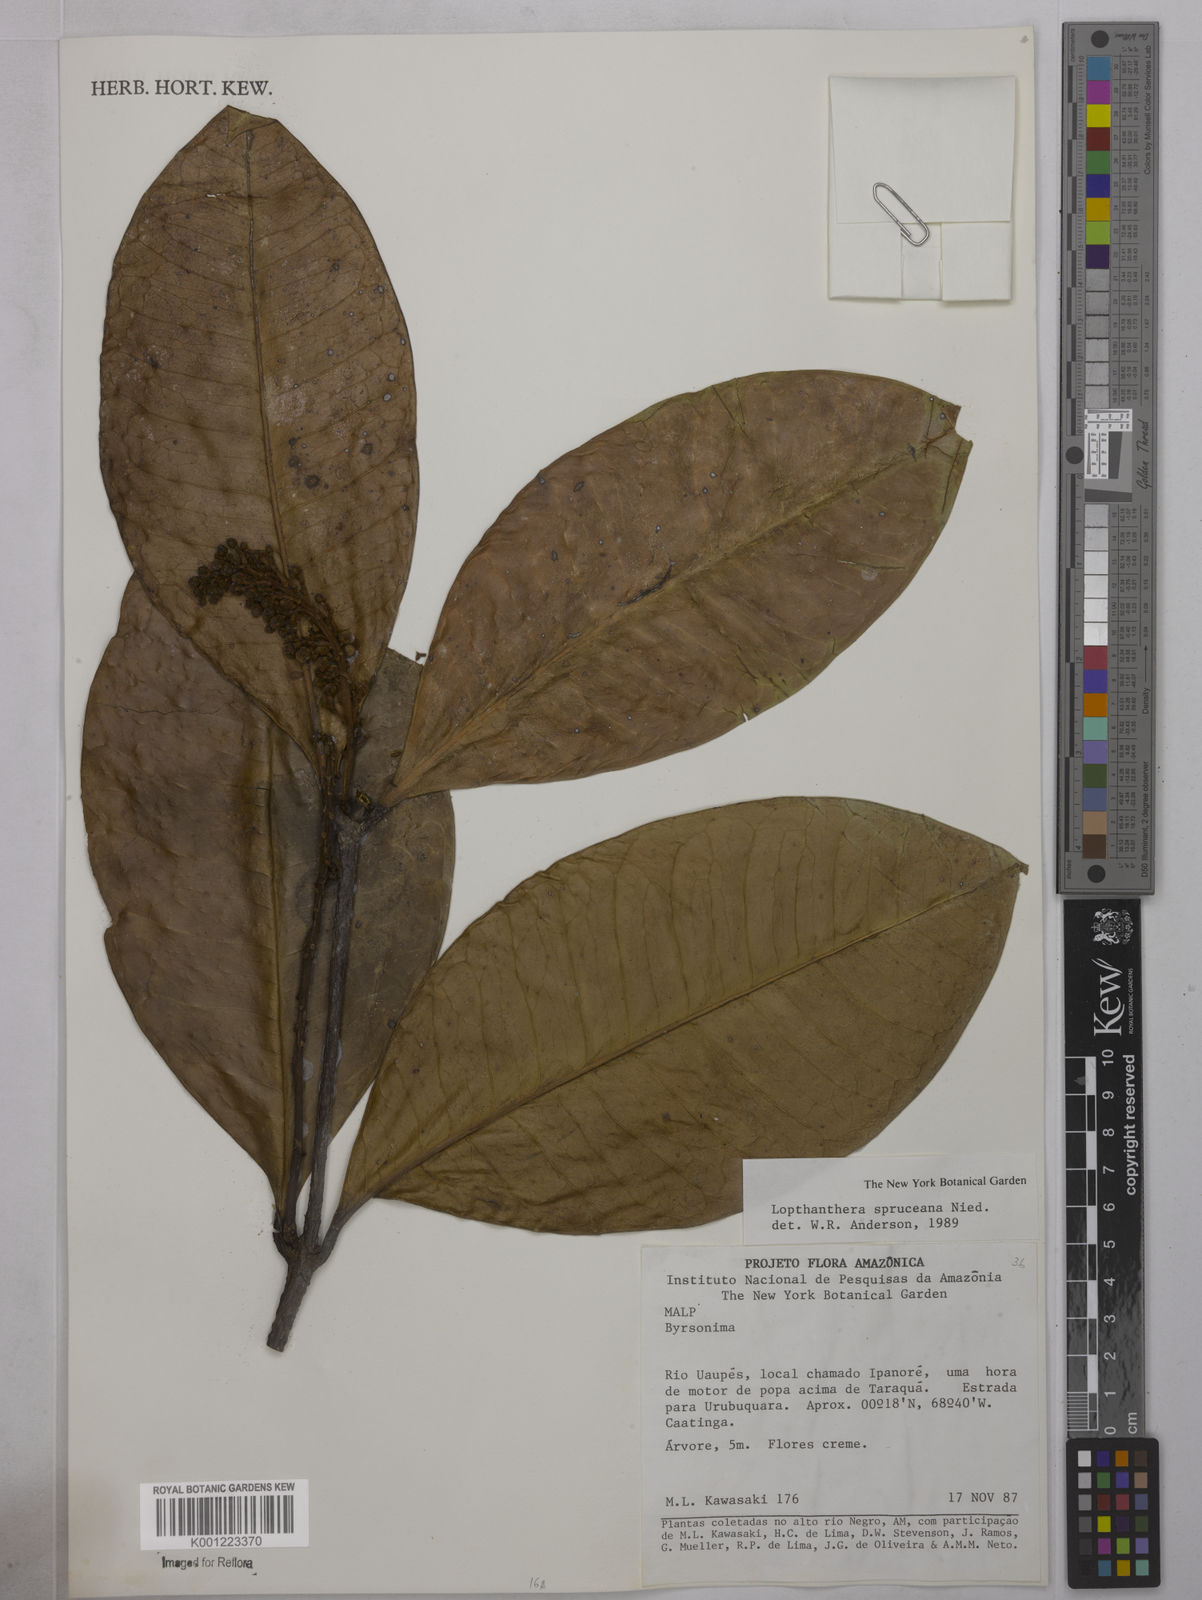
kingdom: Plantae
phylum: Tracheophyta
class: Magnoliopsida
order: Malpighiales
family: Malpighiaceae
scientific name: Malpighiaceae
